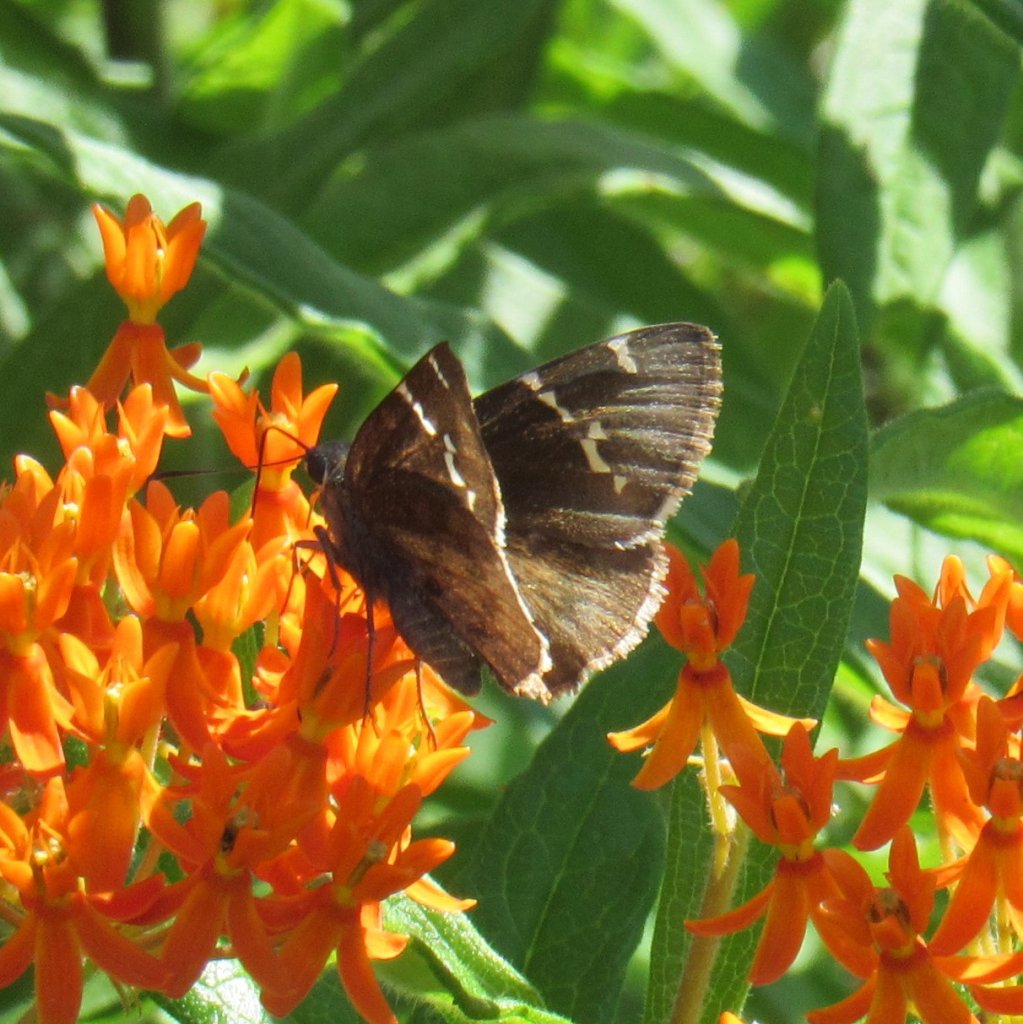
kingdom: Animalia
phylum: Arthropoda
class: Insecta
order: Lepidoptera
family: Hesperiidae
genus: Autochton
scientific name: Autochton
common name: Southern Cloudywing
